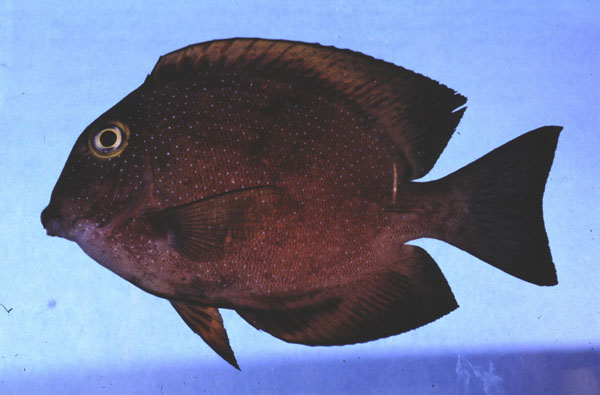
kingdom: Animalia
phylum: Chordata
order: Perciformes
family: Acanthuridae
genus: Ctenochaetus
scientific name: Ctenochaetus truncatus
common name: Indian gold-ring bristle-tooth
